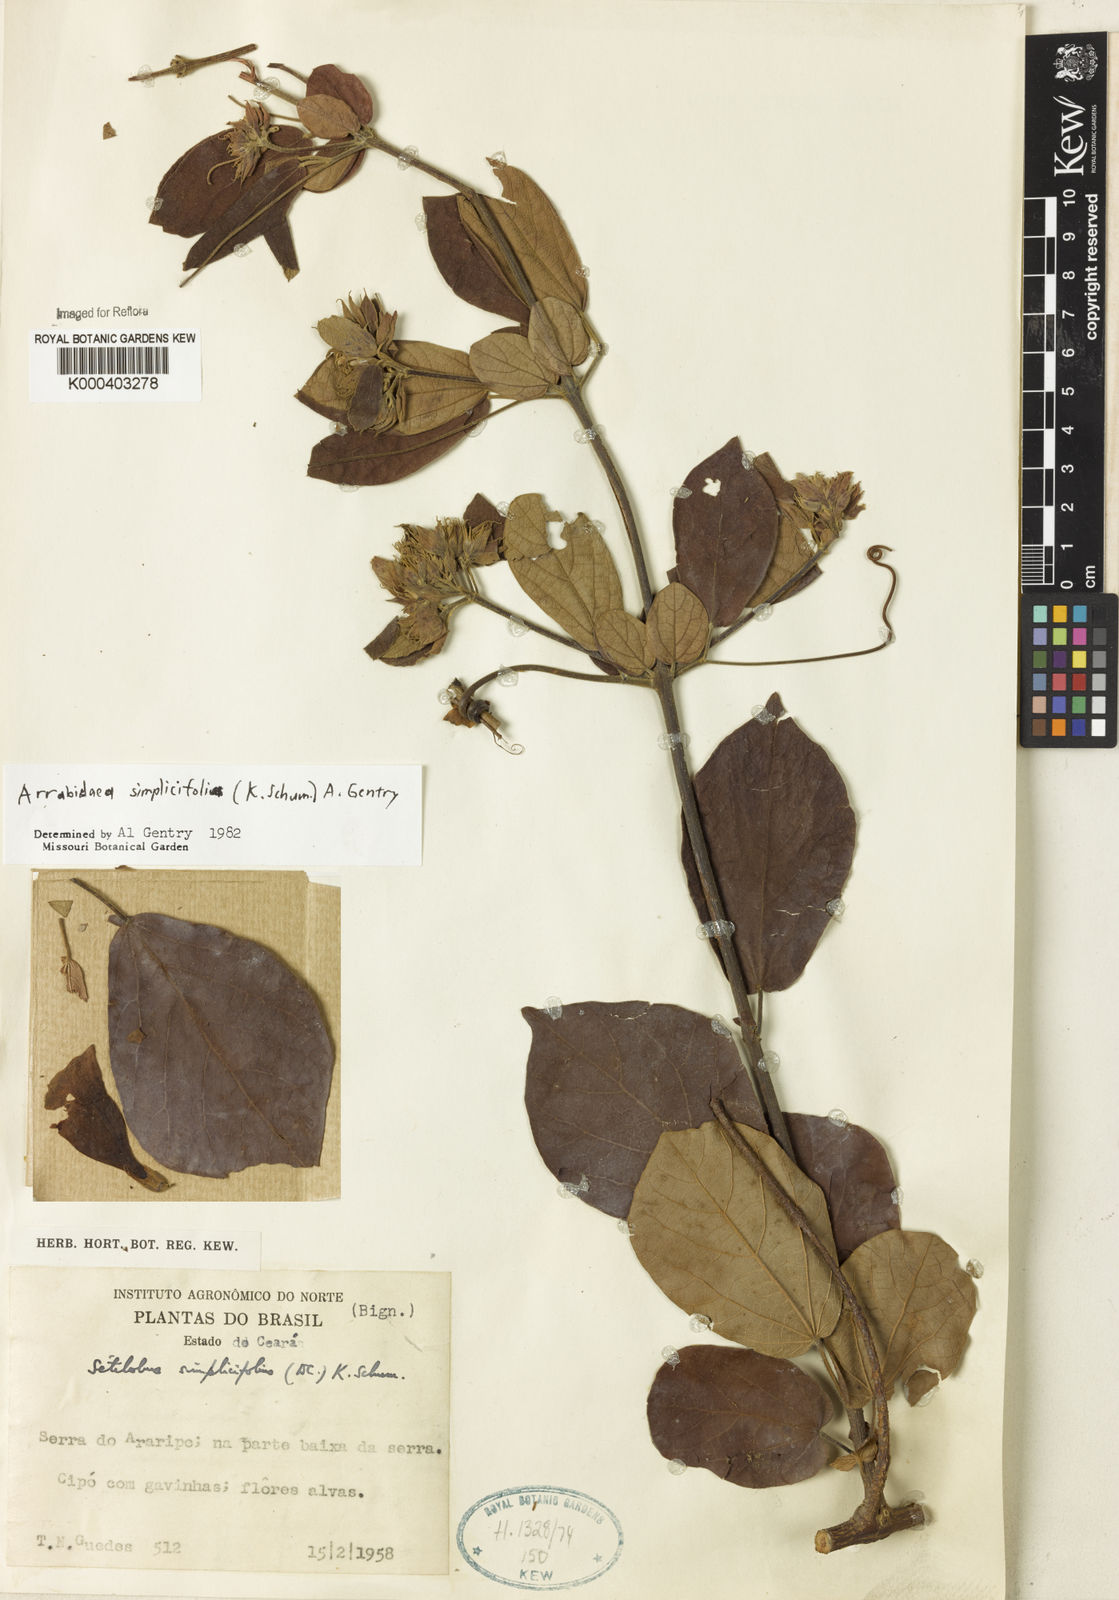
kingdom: Plantae
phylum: Tracheophyta
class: Magnoliopsida
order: Rosales
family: Rhamnaceae
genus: Arrabidaea
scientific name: Arrabidaea
